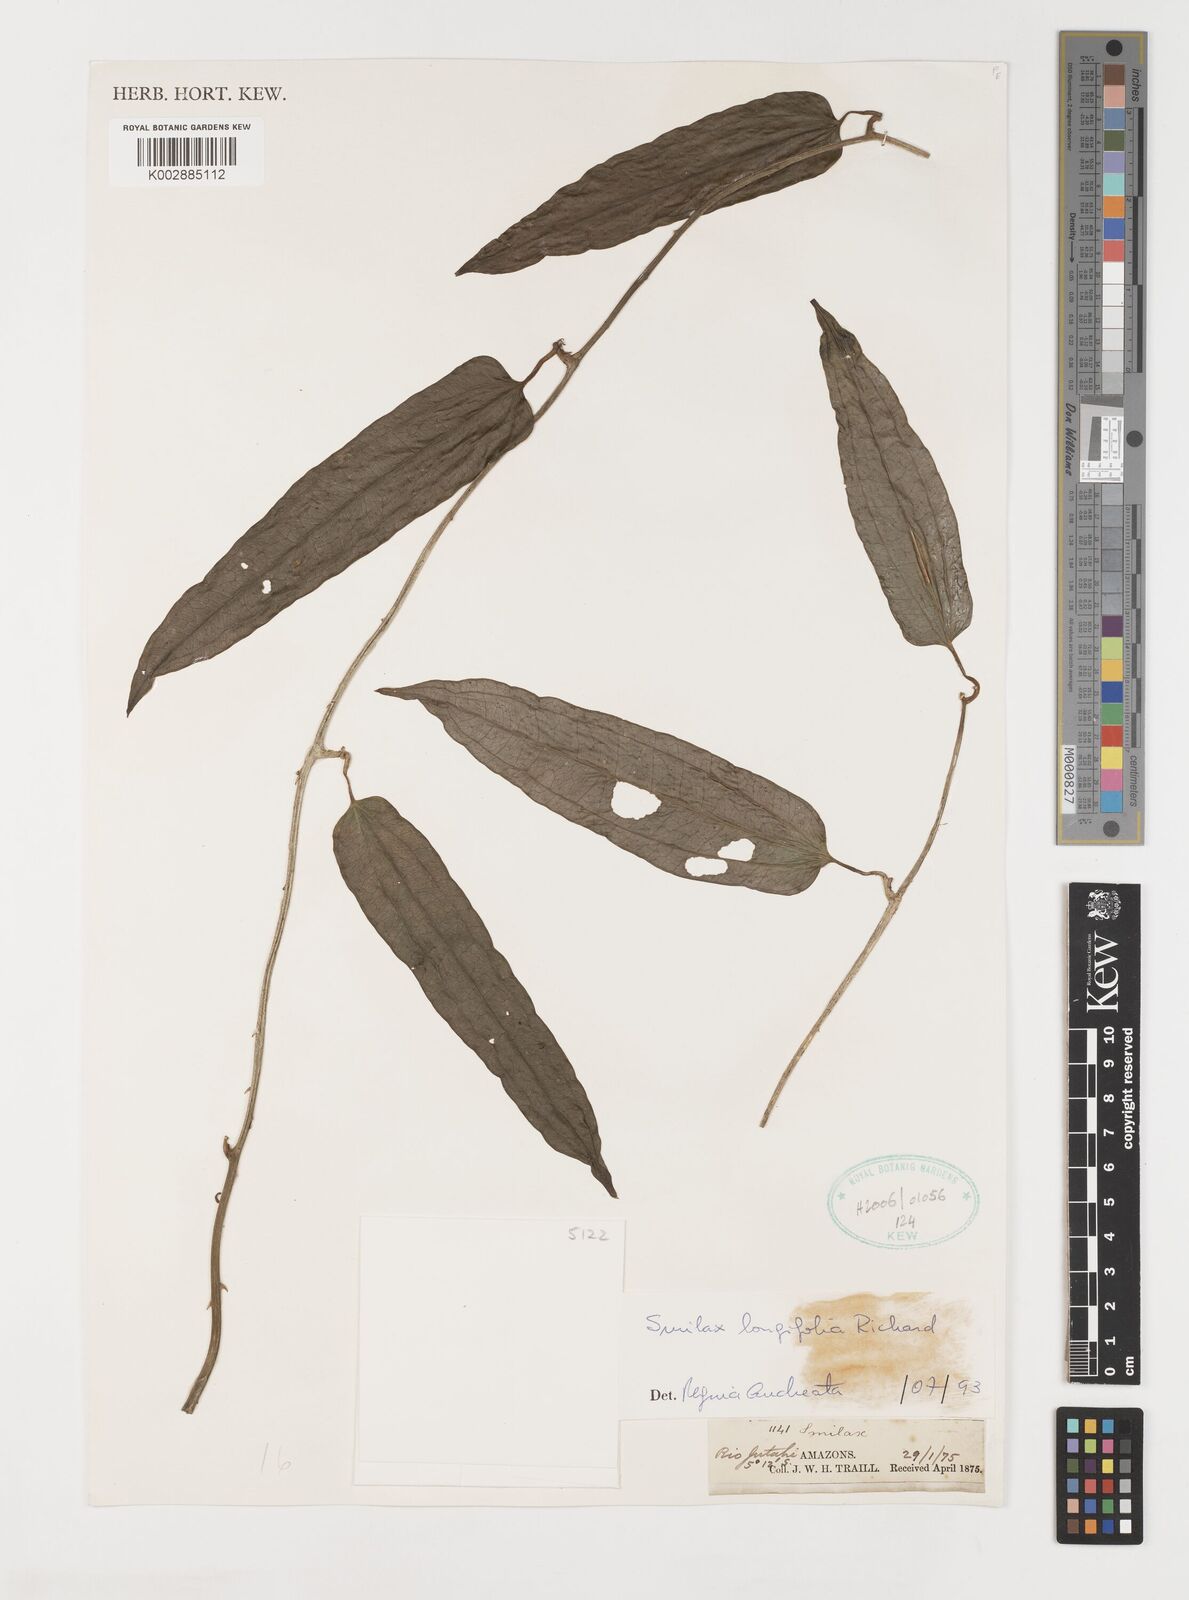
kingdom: Plantae
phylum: Tracheophyta
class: Liliopsida
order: Liliales
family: Smilacaceae
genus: Smilax
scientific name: Smilax longifolia
